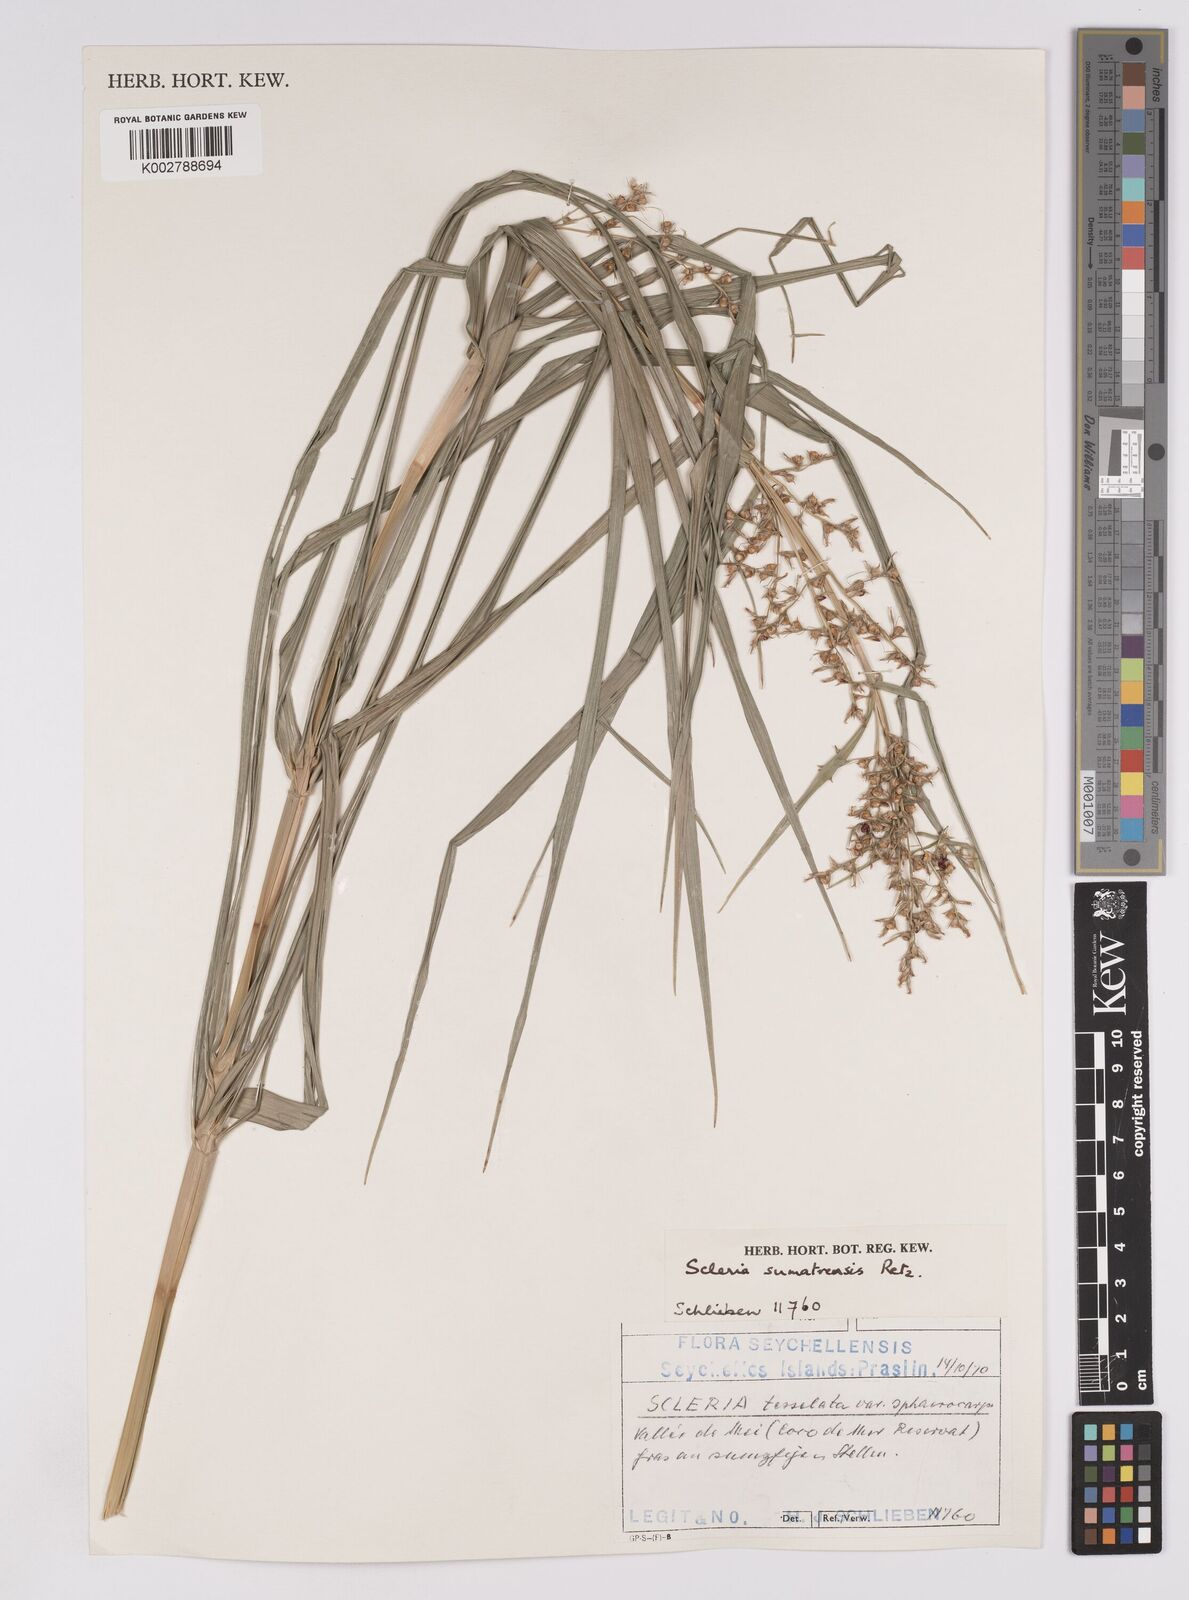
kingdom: Plantae
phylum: Tracheophyta
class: Liliopsida
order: Poales
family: Cyperaceae
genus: Scleria
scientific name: Scleria sumatrensis
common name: Sumatran scleria
